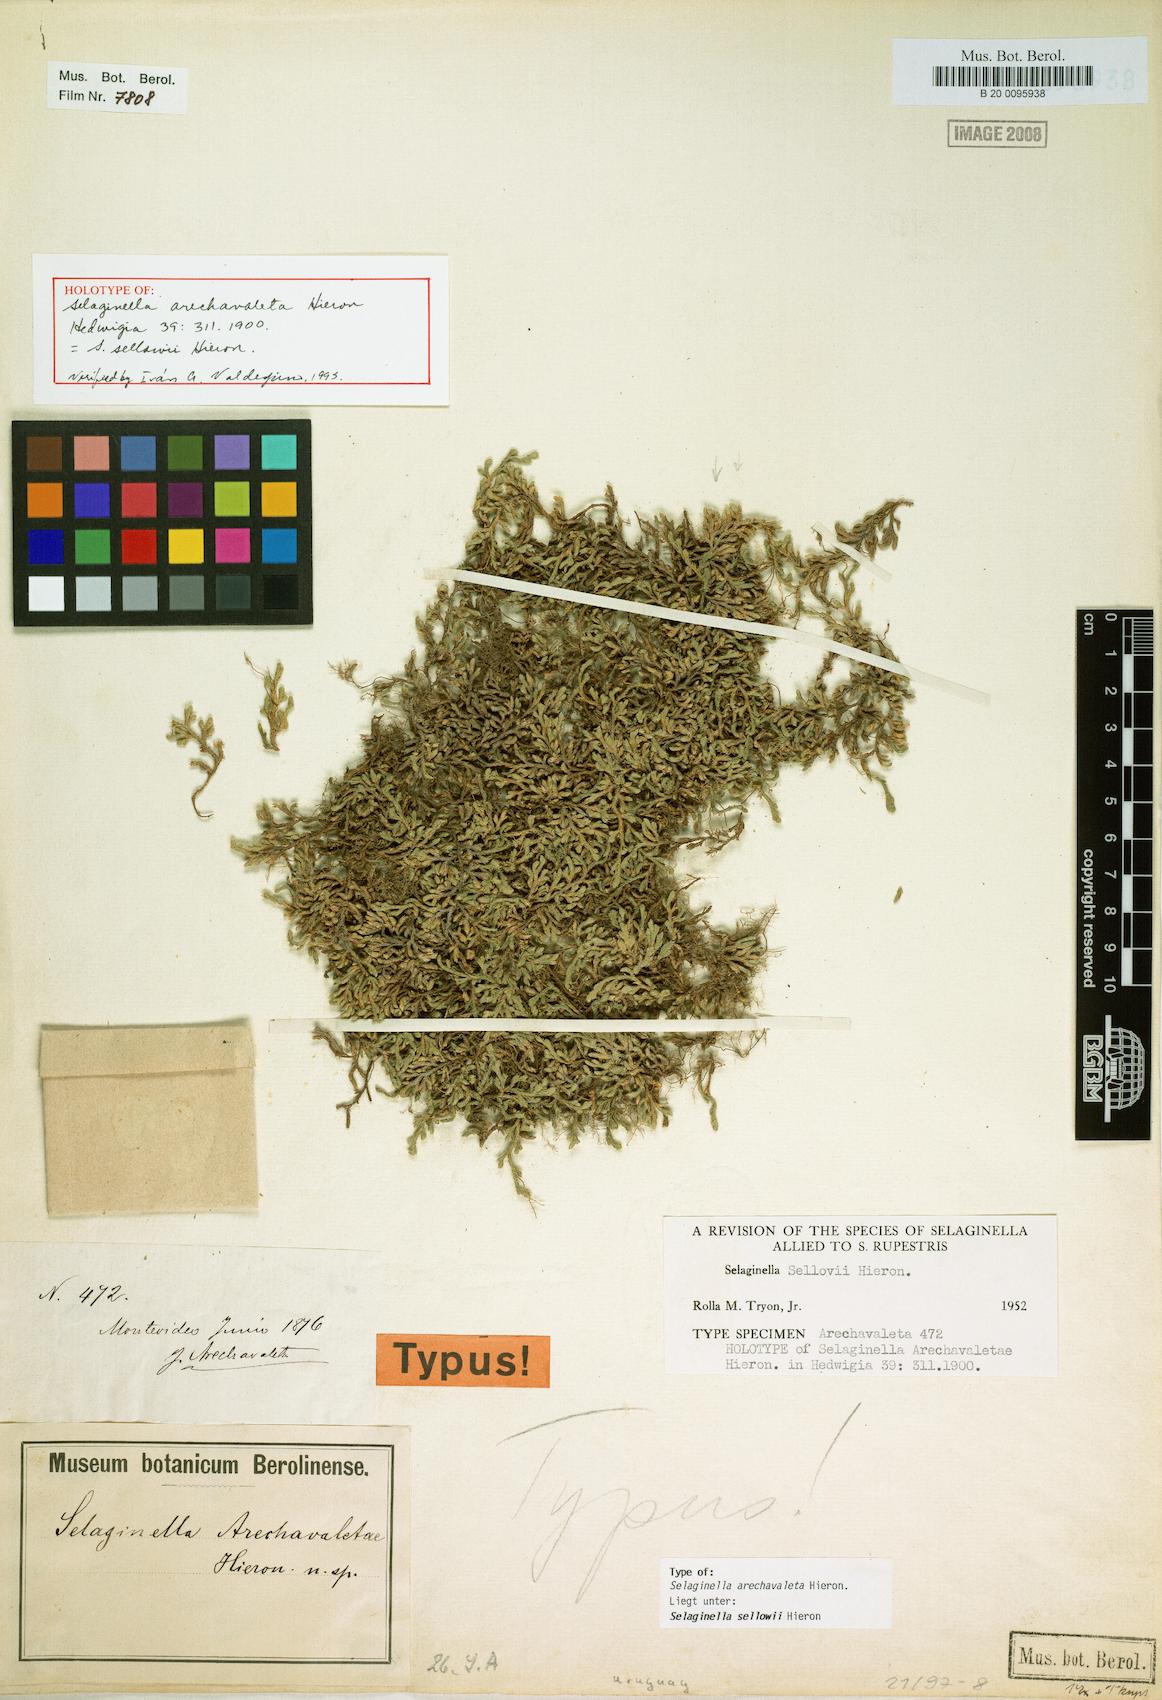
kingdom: Plantae
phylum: Tracheophyta
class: Lycopodiopsida
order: Selaginellales
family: Selaginellaceae
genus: Selaginella
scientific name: Selaginella sellowii
